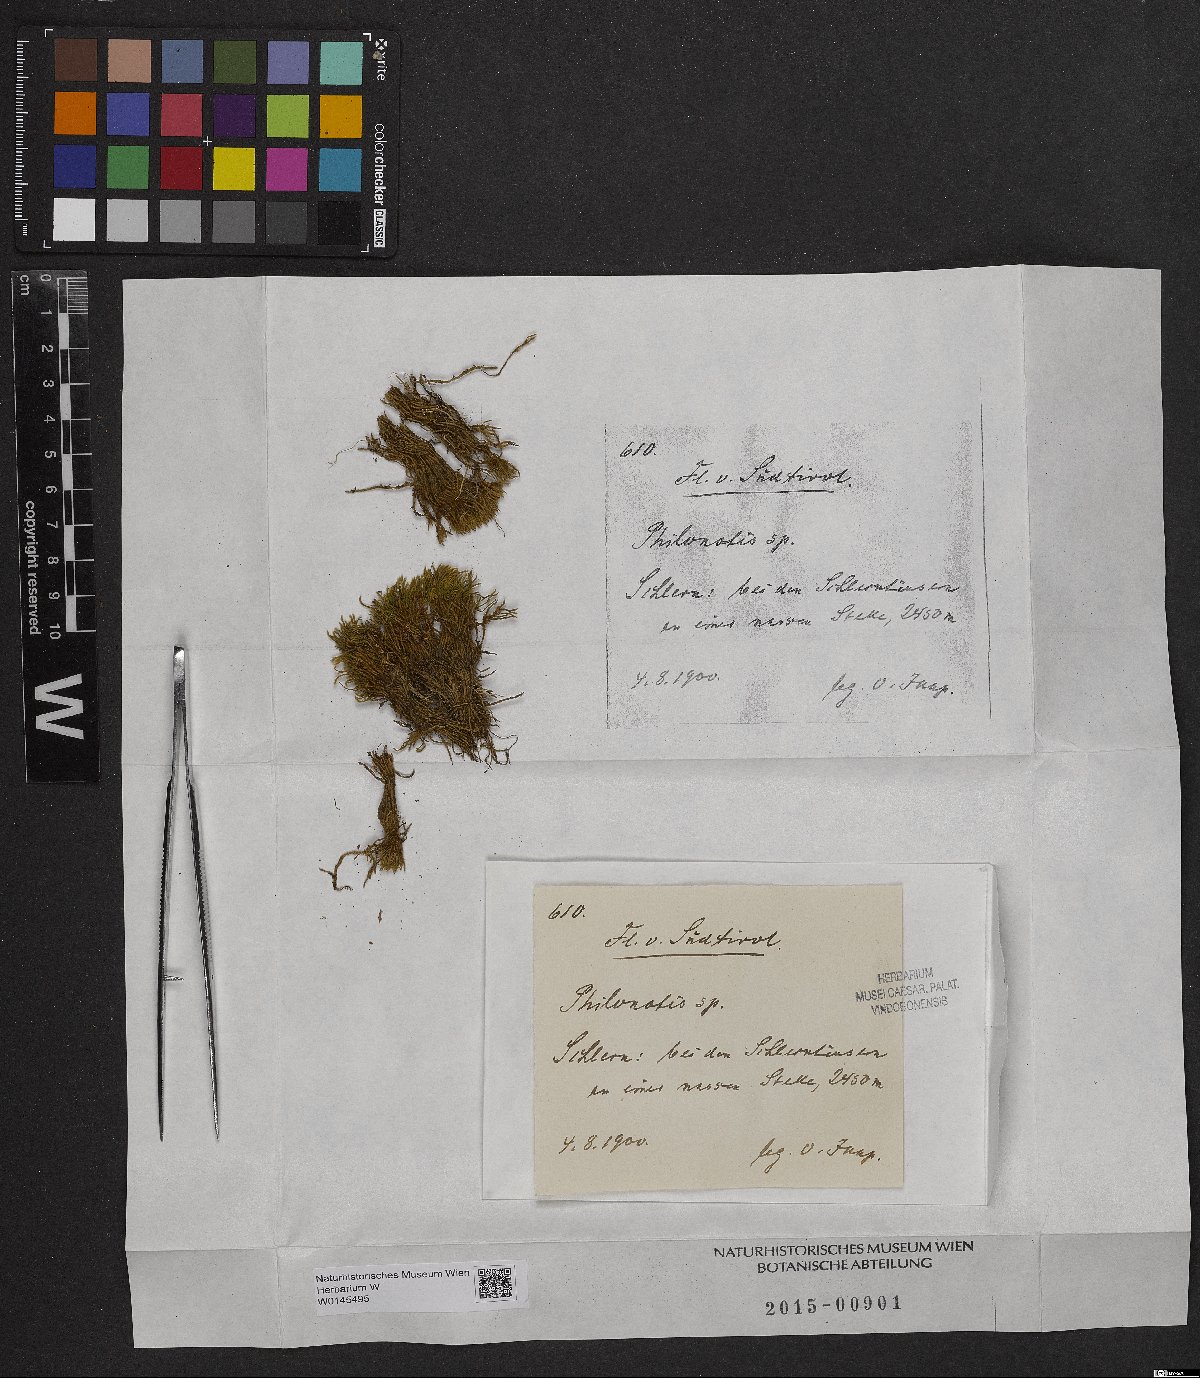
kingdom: Plantae
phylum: Bryophyta
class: Bryopsida
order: Bartramiales
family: Bartramiaceae
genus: Philonotis
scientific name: Philonotis
